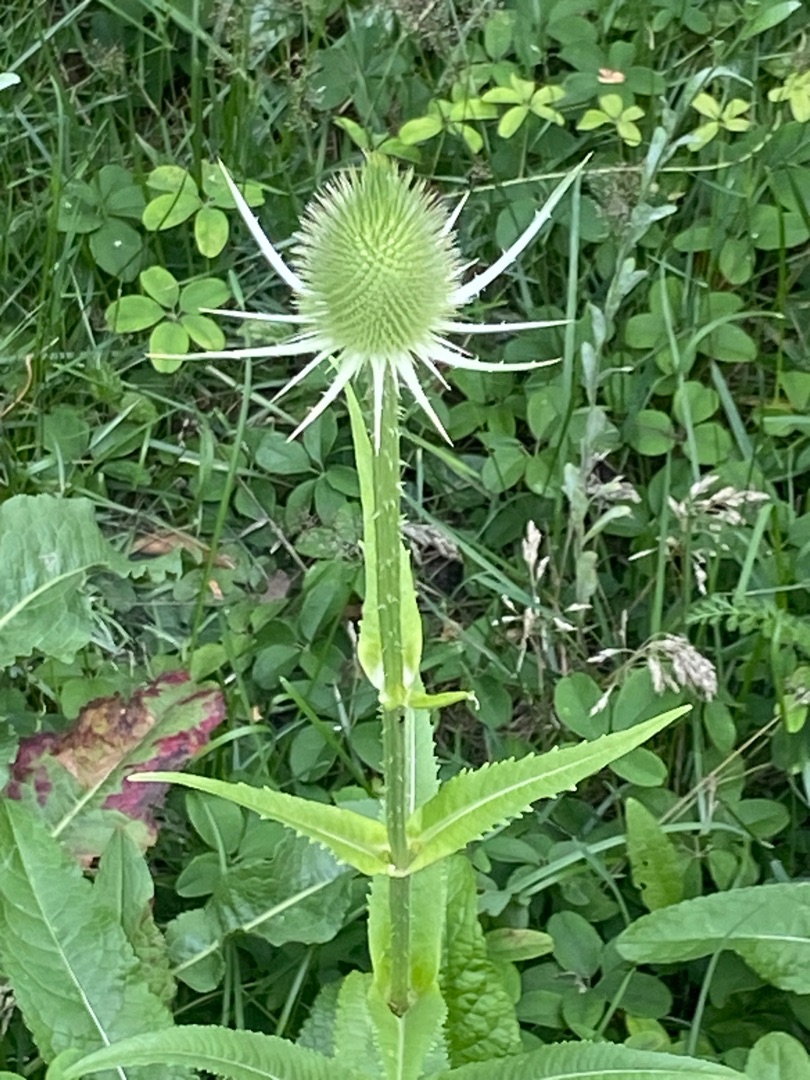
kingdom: Plantae
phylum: Tracheophyta
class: Magnoliopsida
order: Dipsacales
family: Caprifoliaceae
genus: Dipsacus
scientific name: Dipsacus fullonum
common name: Gærde-kartebolle
